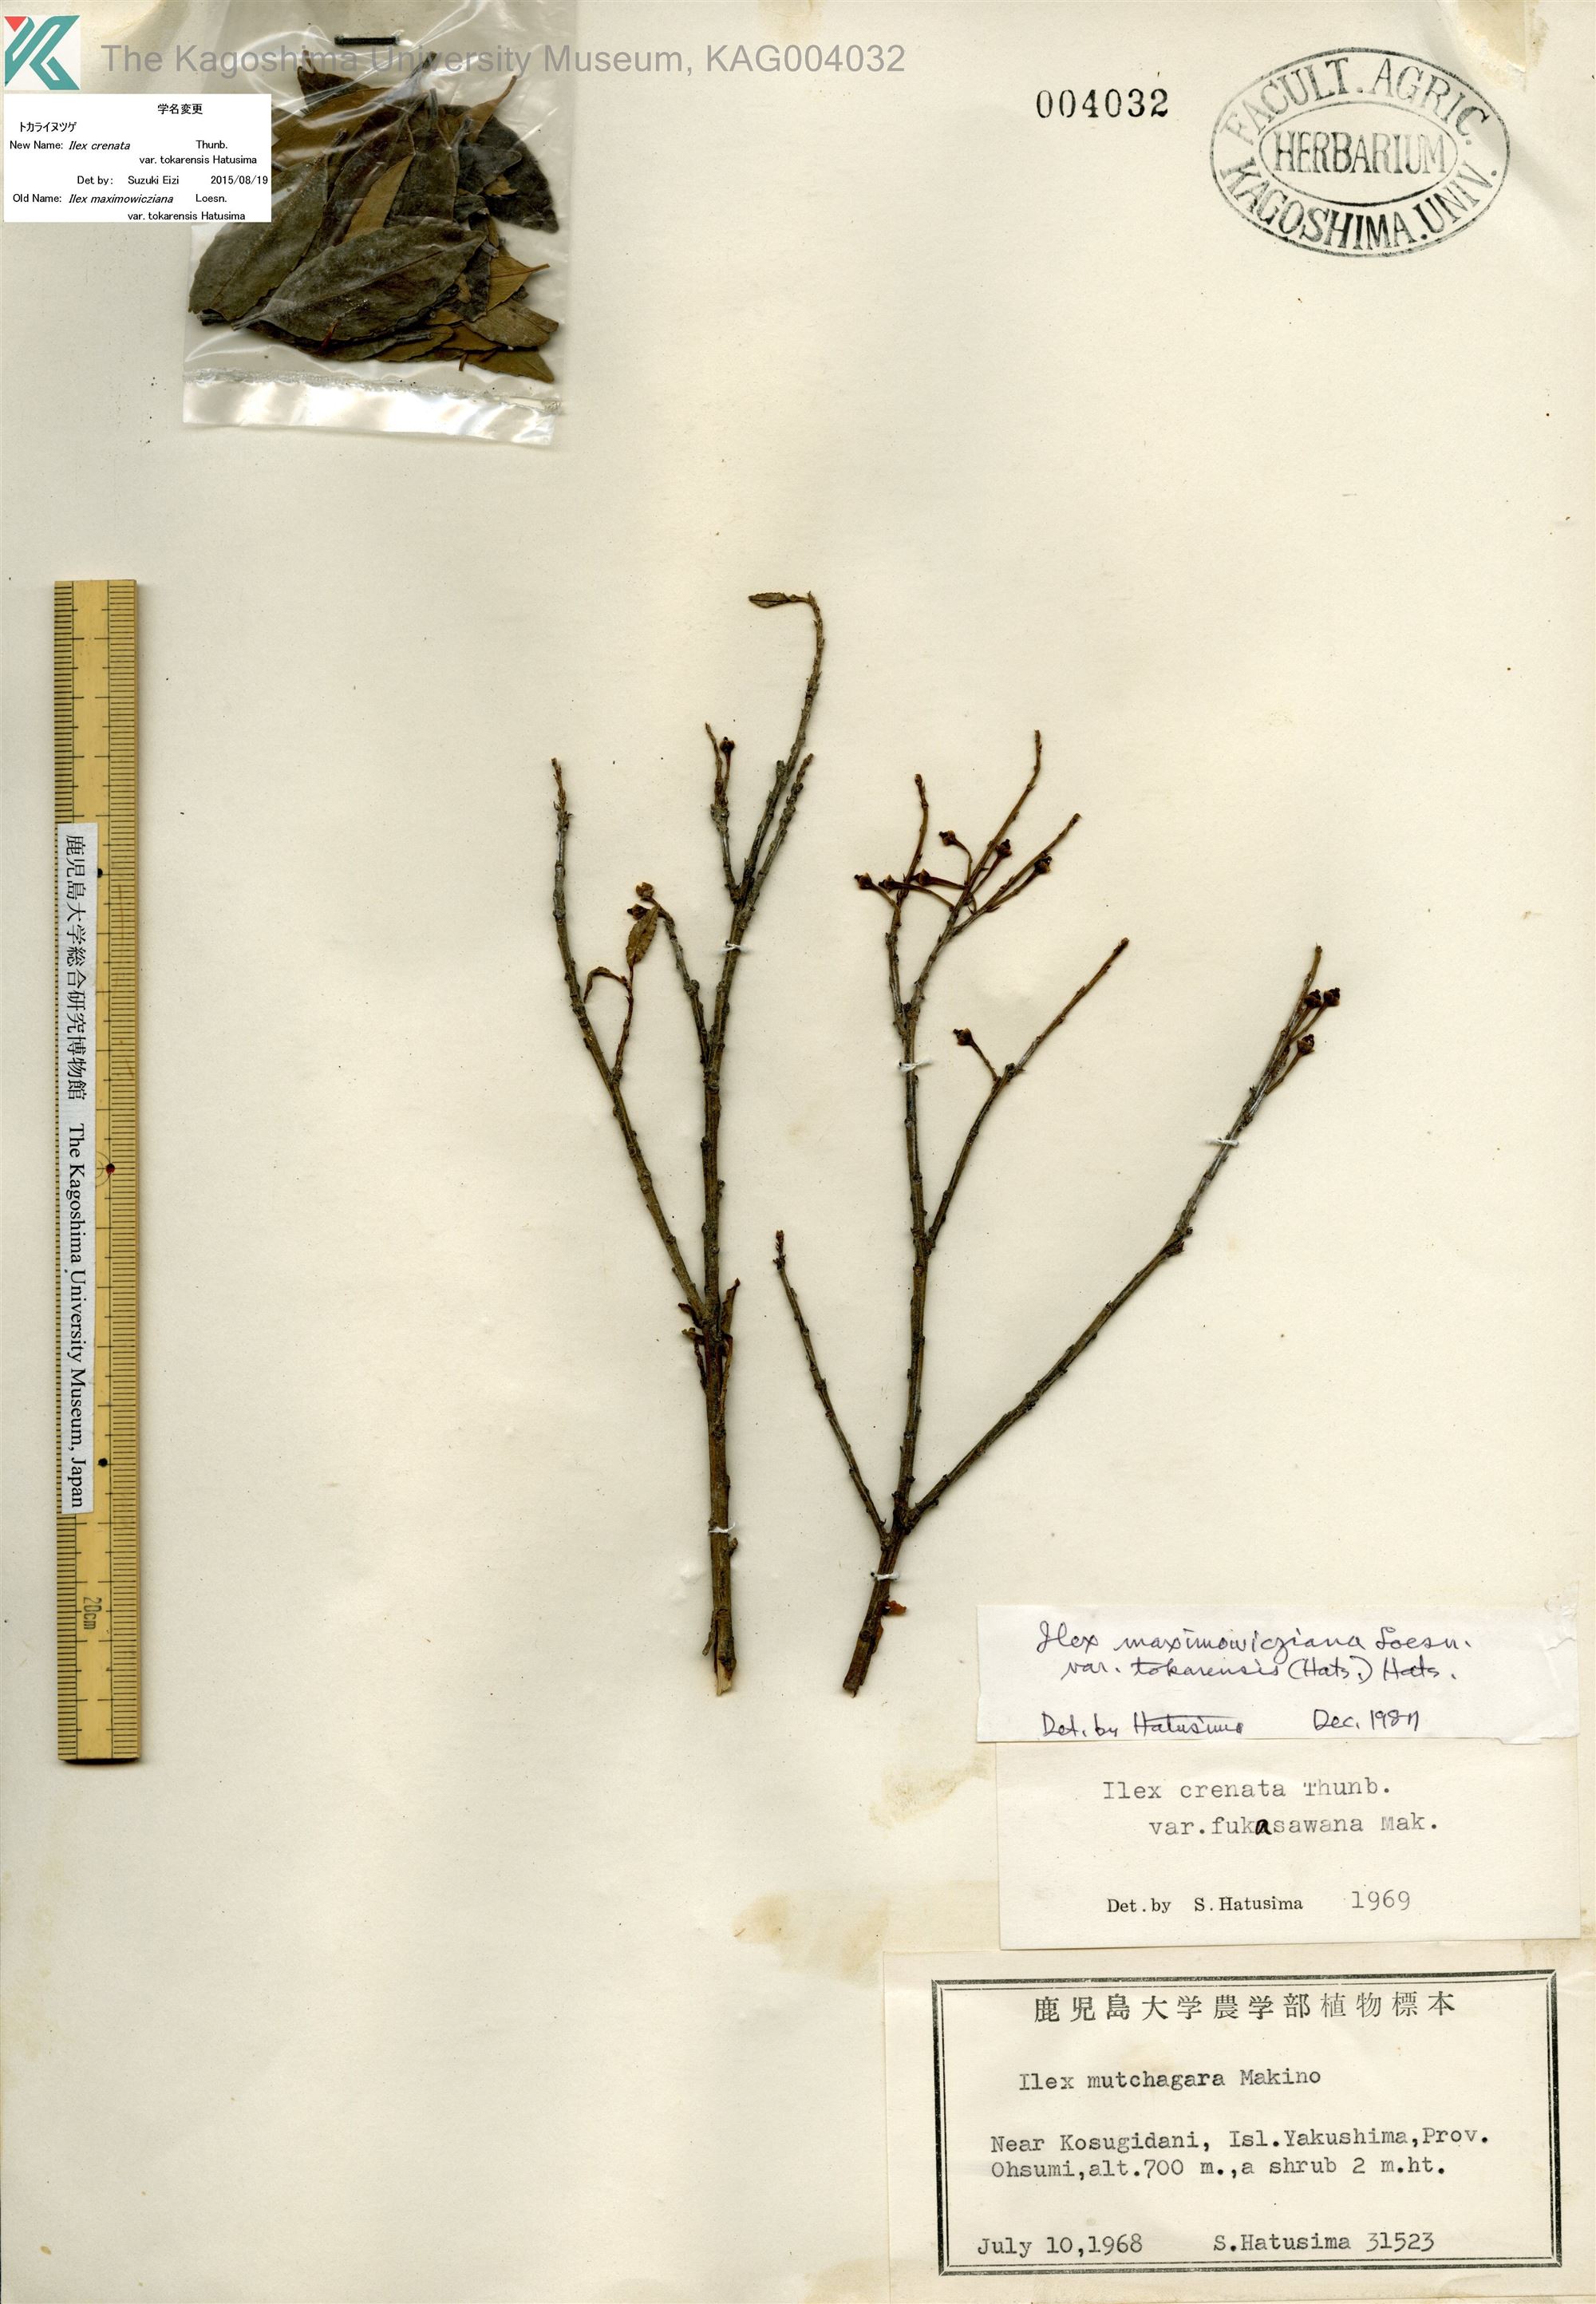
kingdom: Plantae
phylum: Tracheophyta
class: Magnoliopsida
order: Aquifoliales
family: Aquifoliaceae
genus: Ilex
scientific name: Ilex crenata
